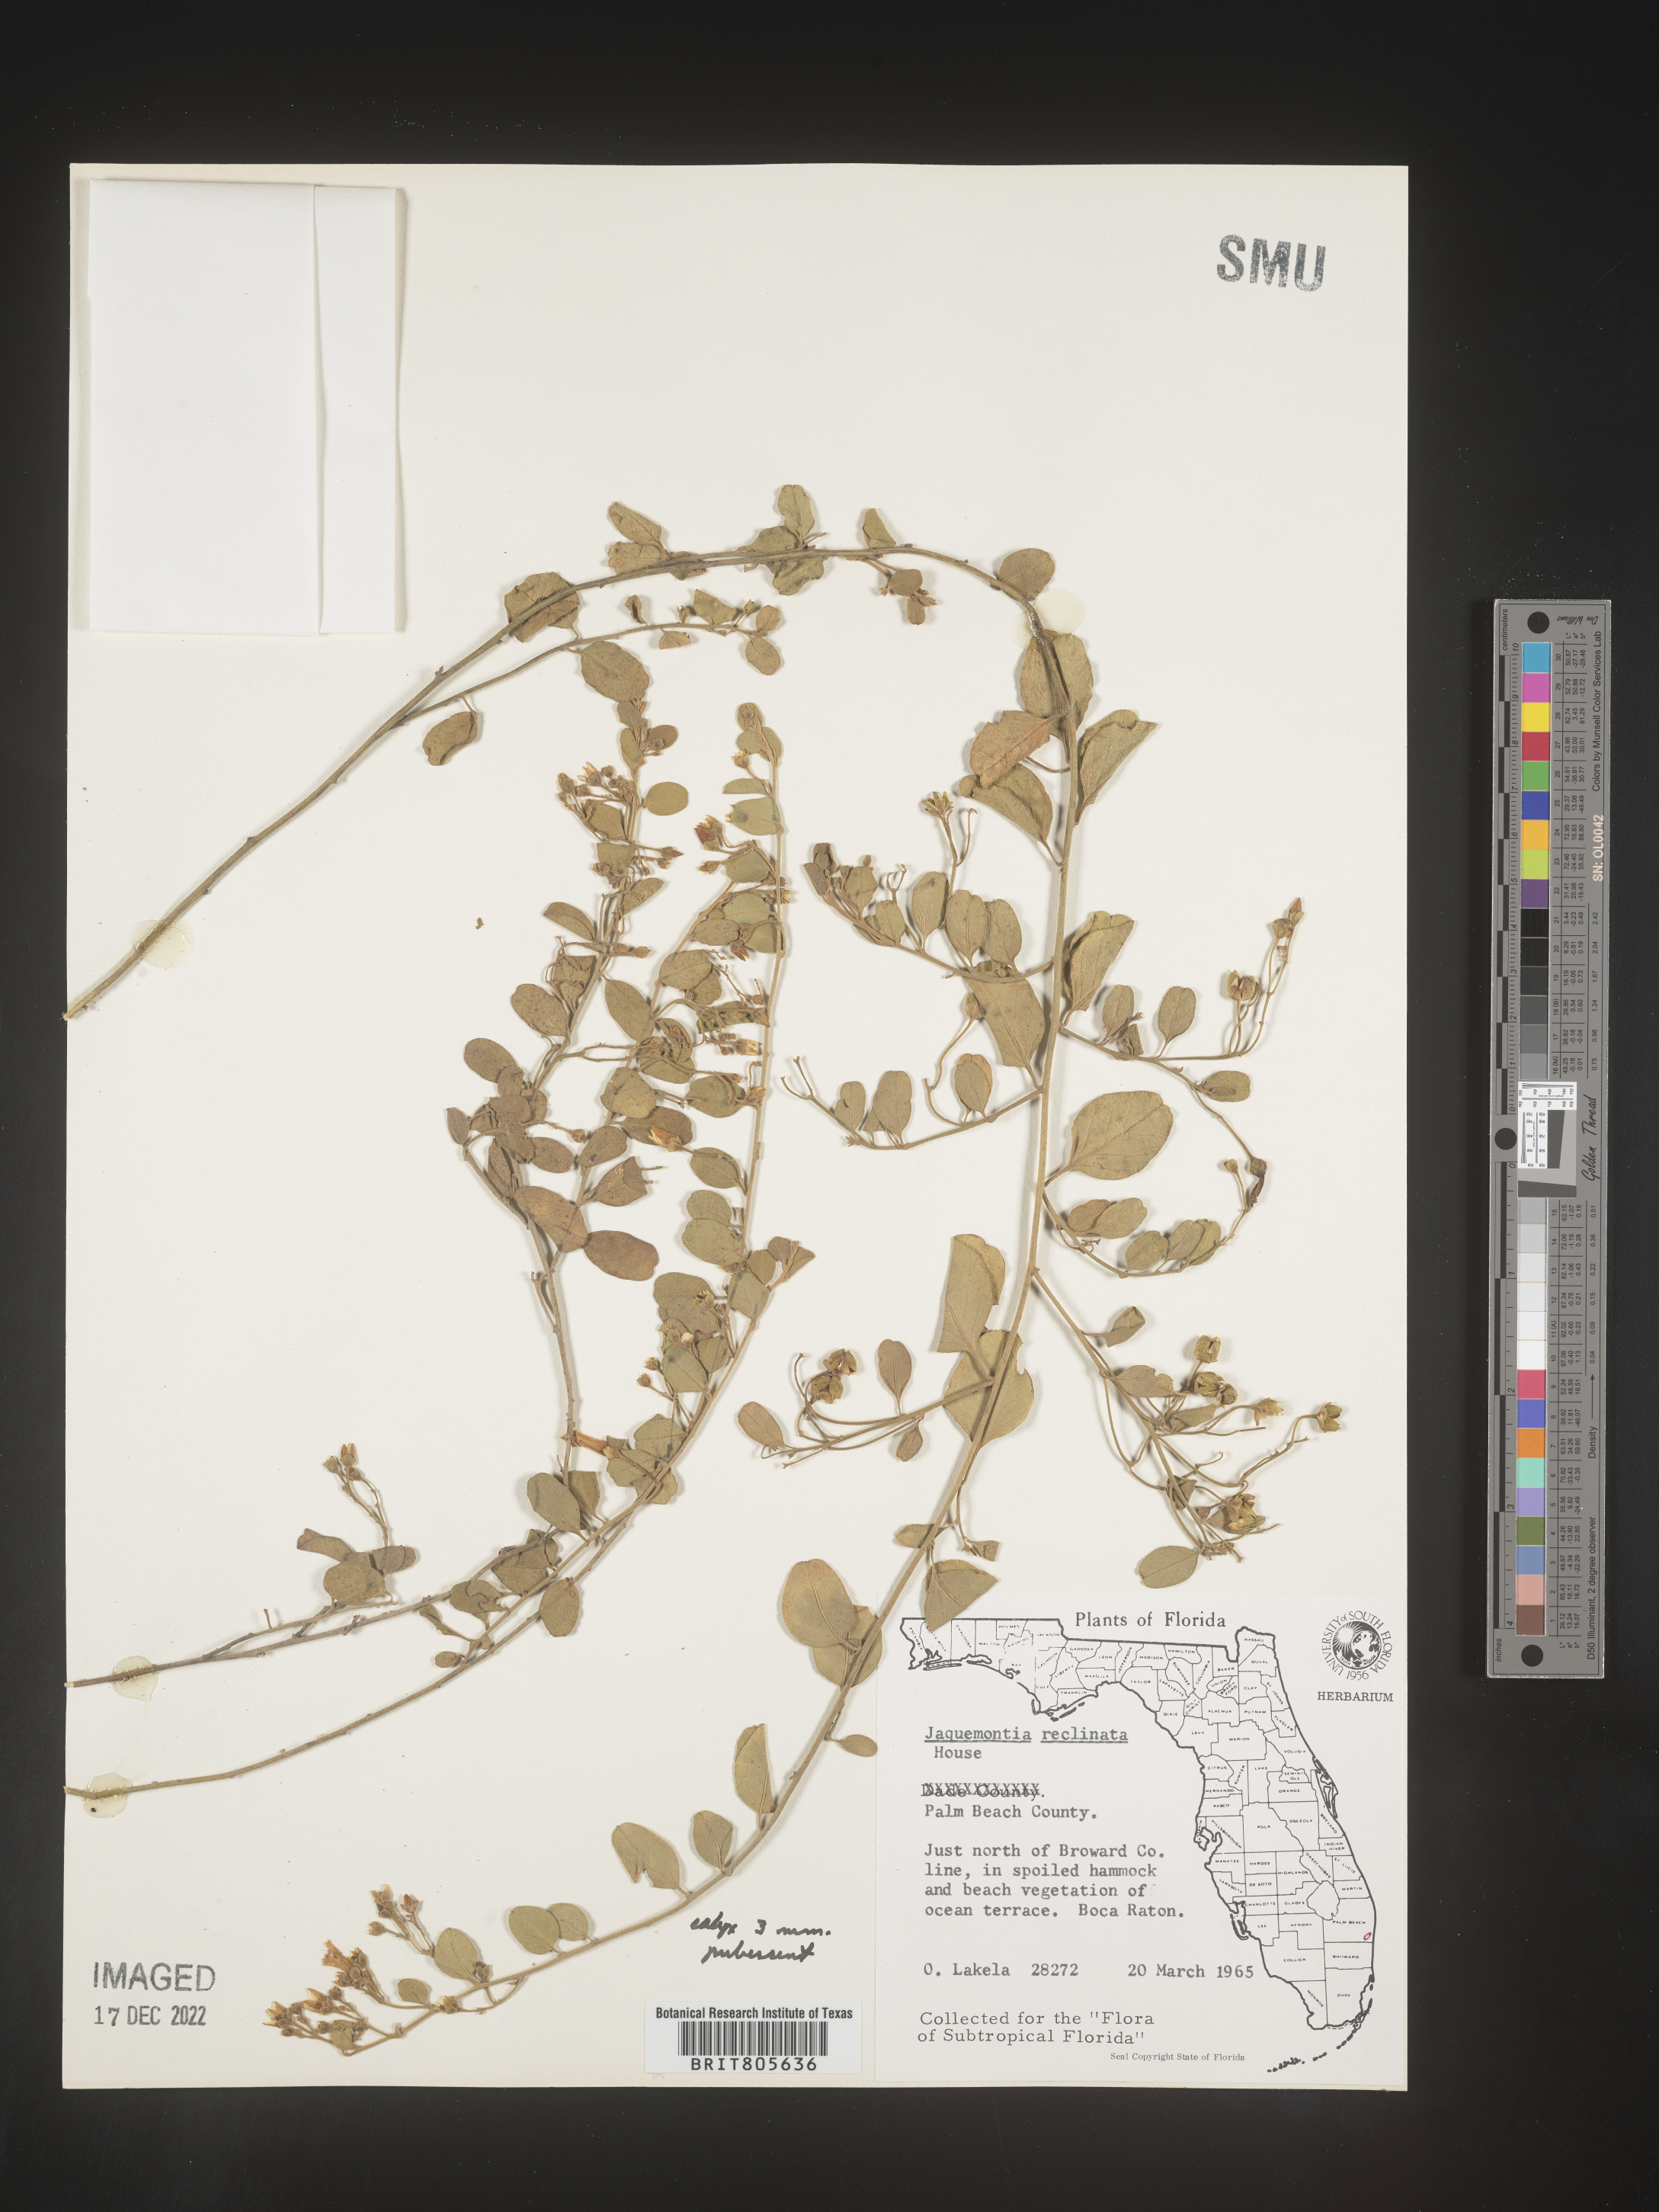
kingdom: Plantae
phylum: Tracheophyta
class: Magnoliopsida
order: Solanales
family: Convolvulaceae
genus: Jacquemontia
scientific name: Jacquemontia
